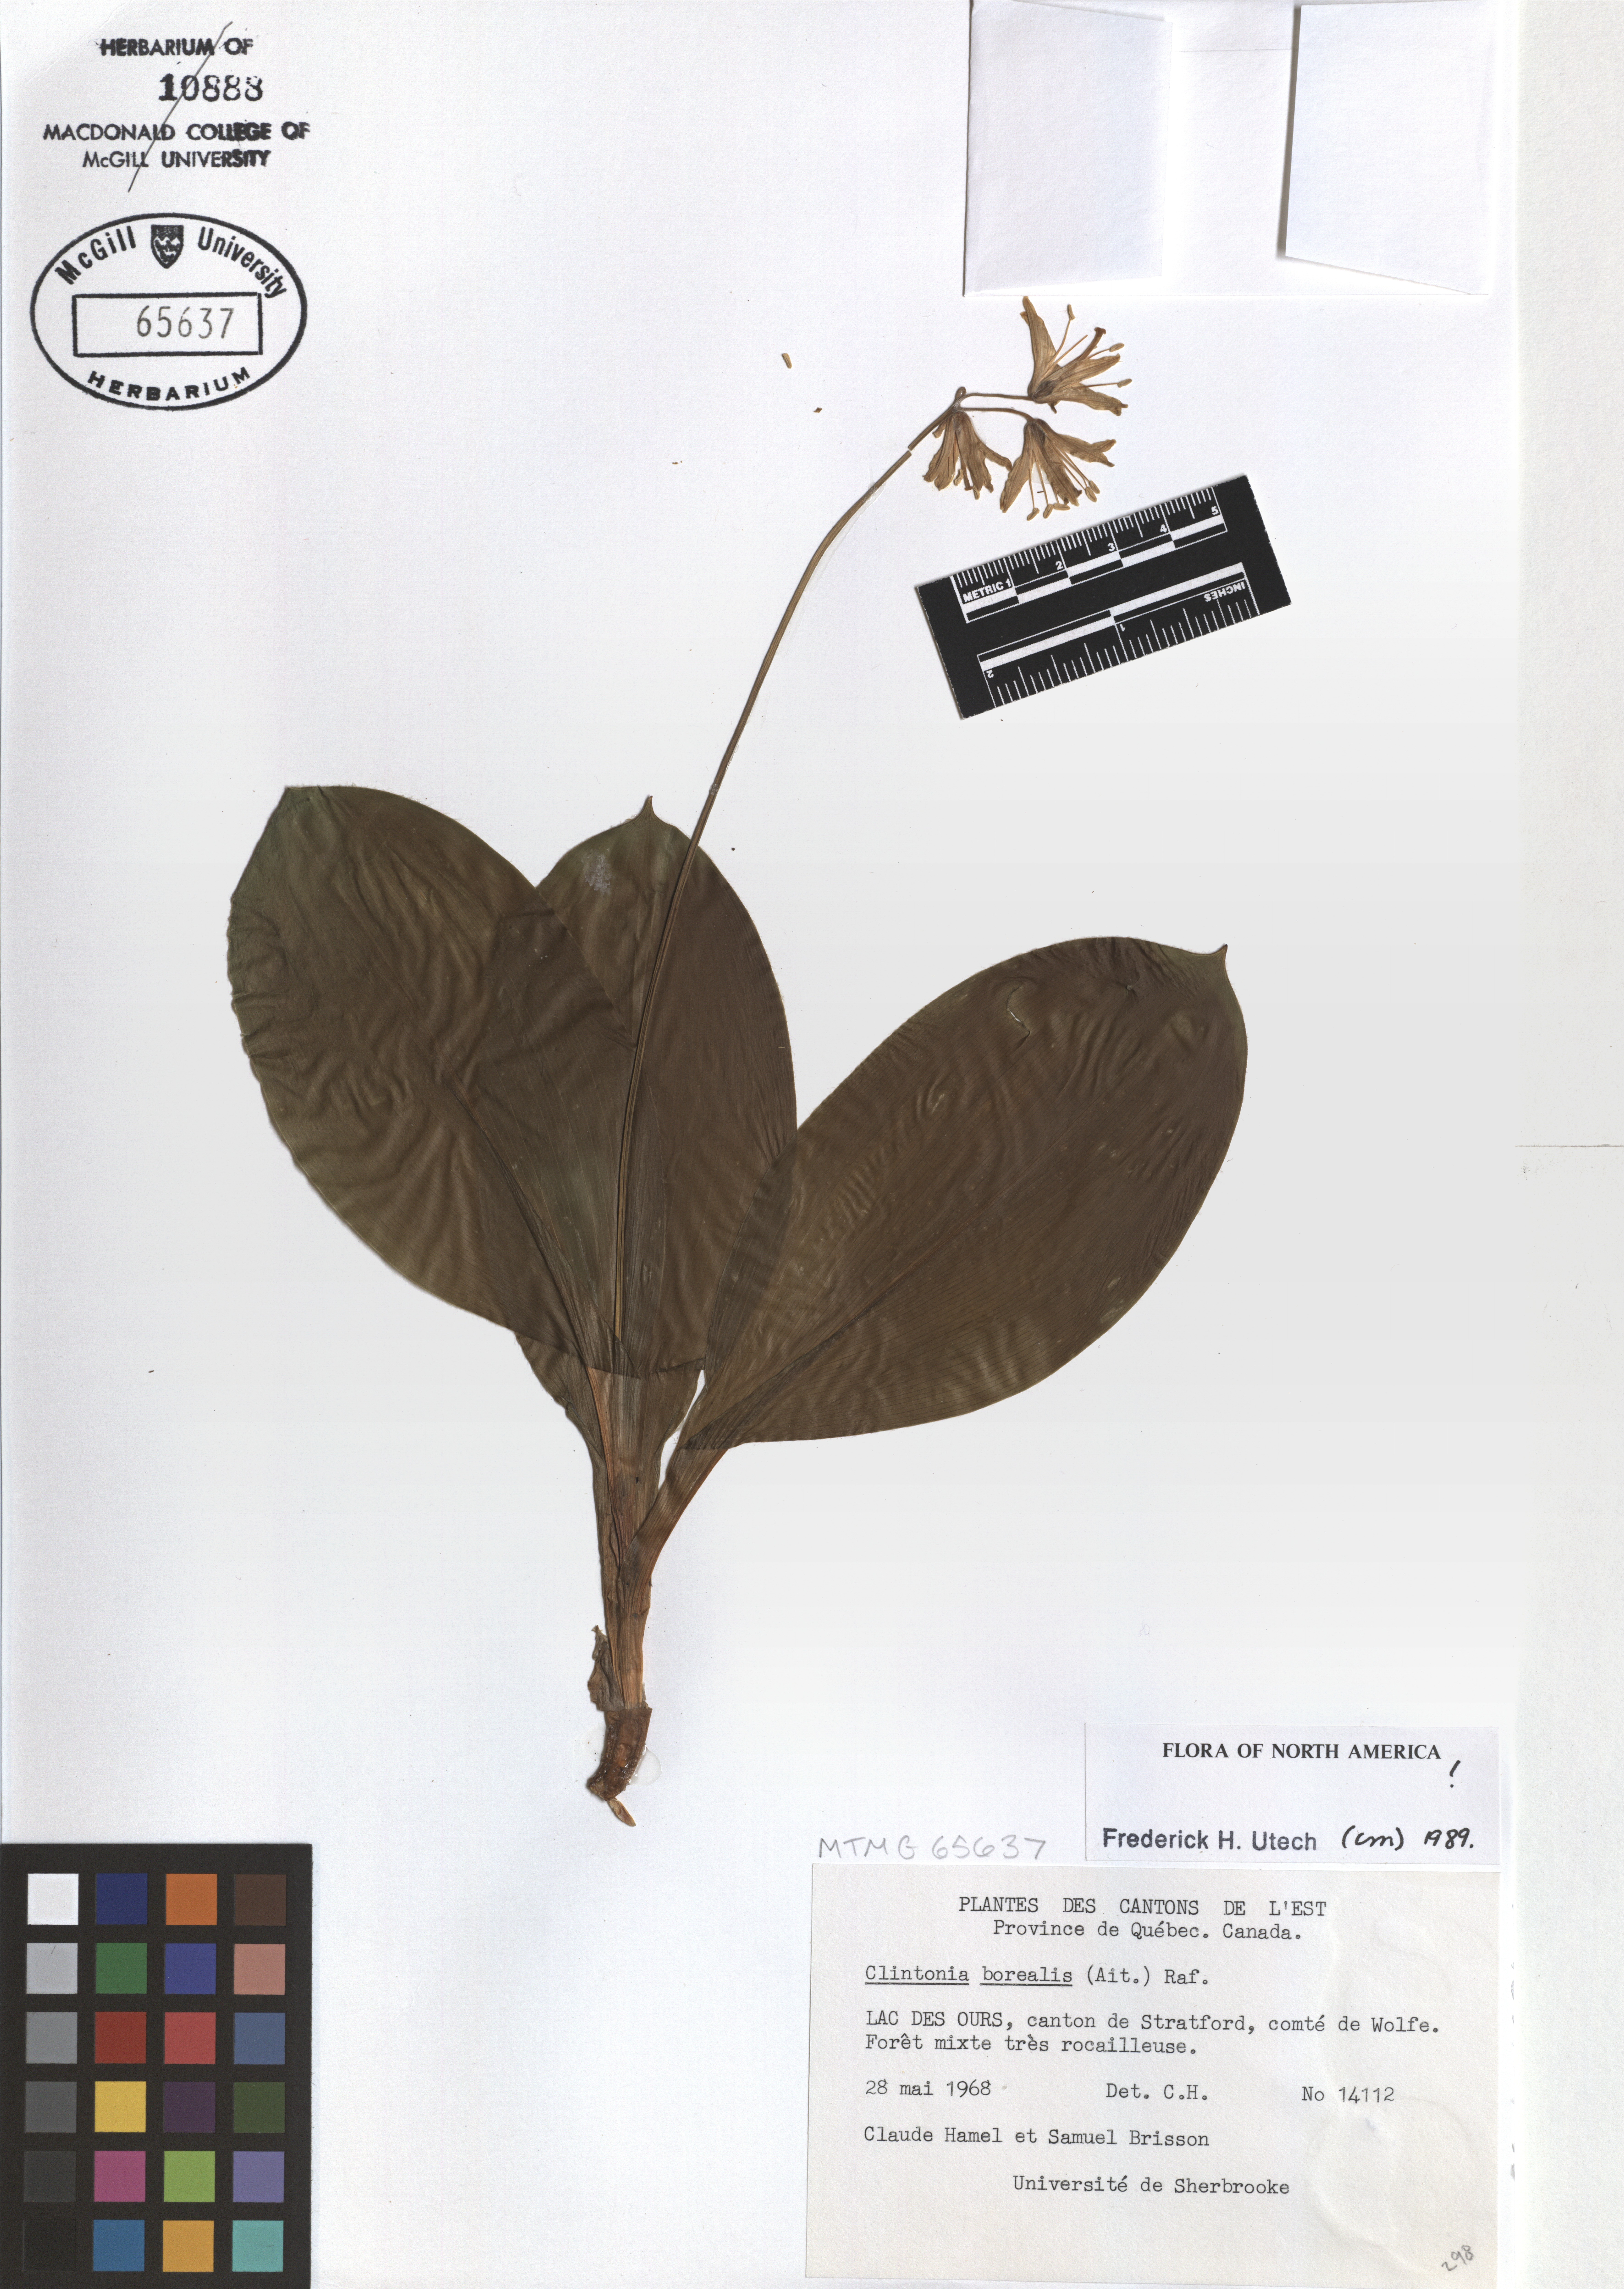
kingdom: Plantae
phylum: Tracheophyta
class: Liliopsida
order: Liliales
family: Liliaceae
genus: Clintonia
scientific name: Clintonia borealis
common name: Yellow clintonia
